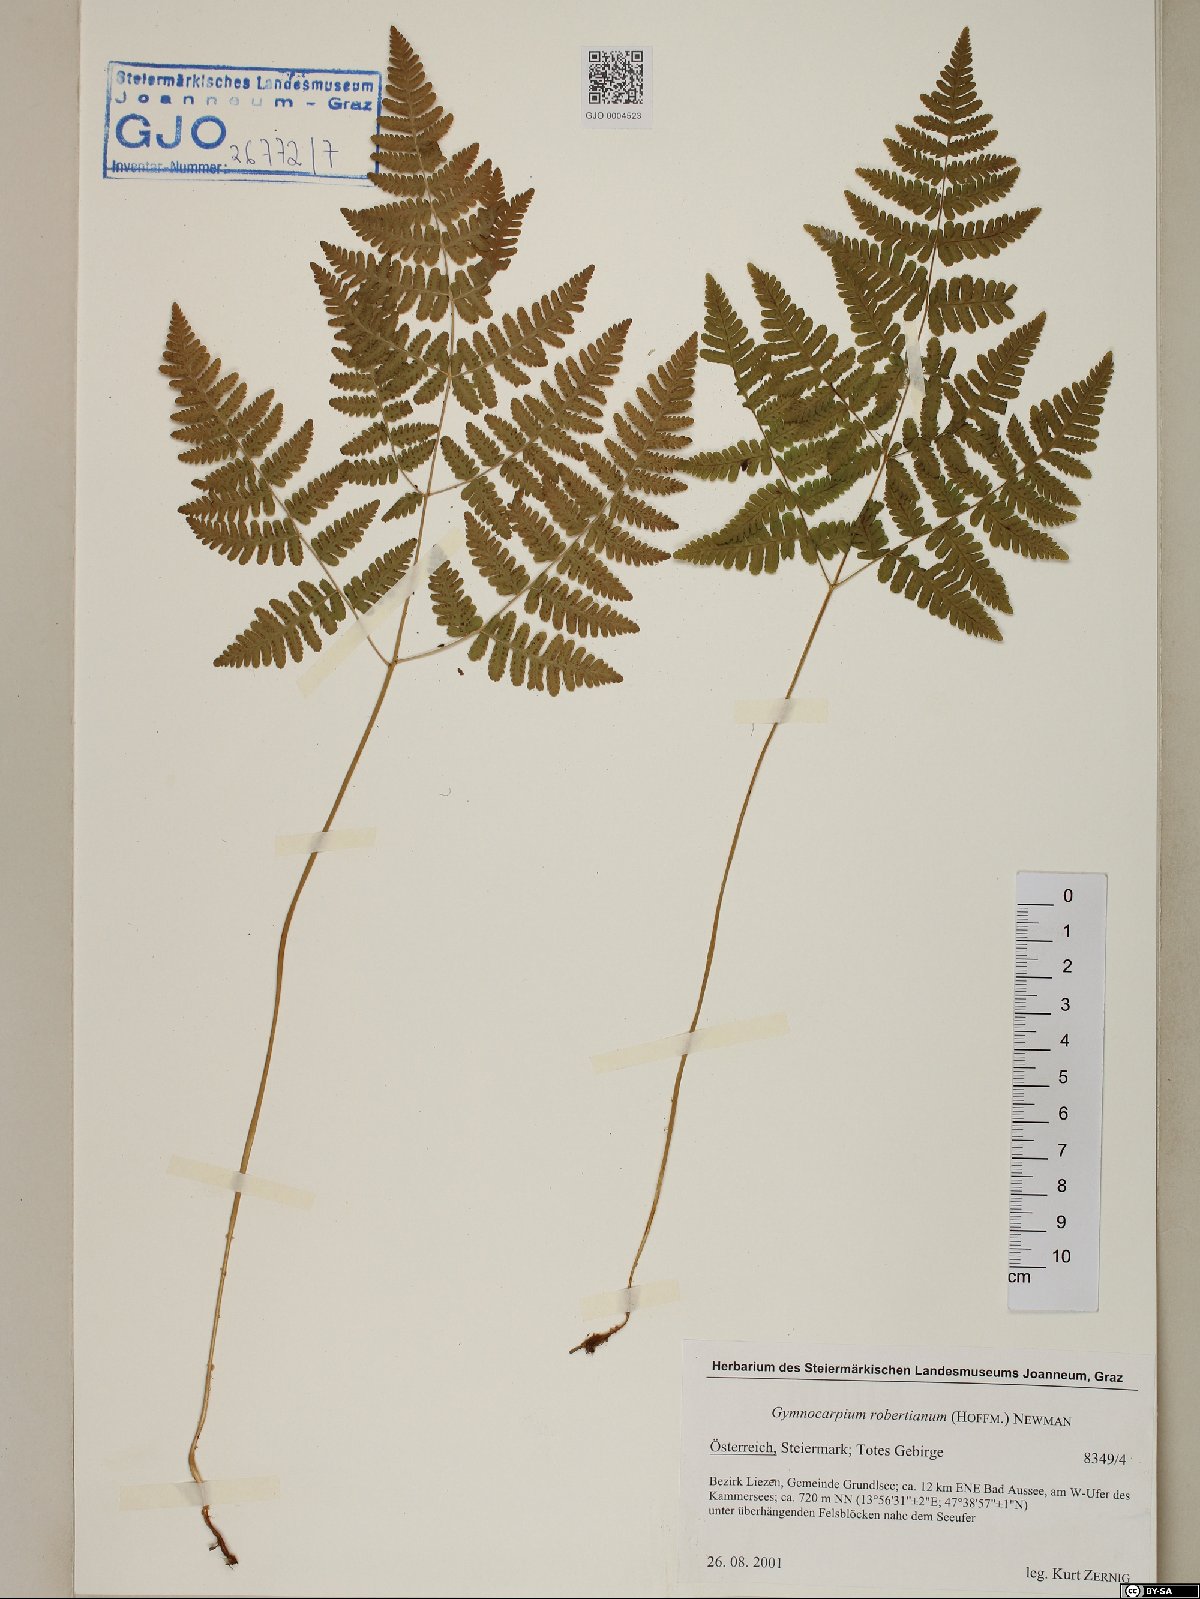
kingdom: Plantae
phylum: Tracheophyta
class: Polypodiopsida
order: Polypodiales
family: Cystopteridaceae
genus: Gymnocarpium
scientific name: Gymnocarpium robertianum
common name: Limestone fern
